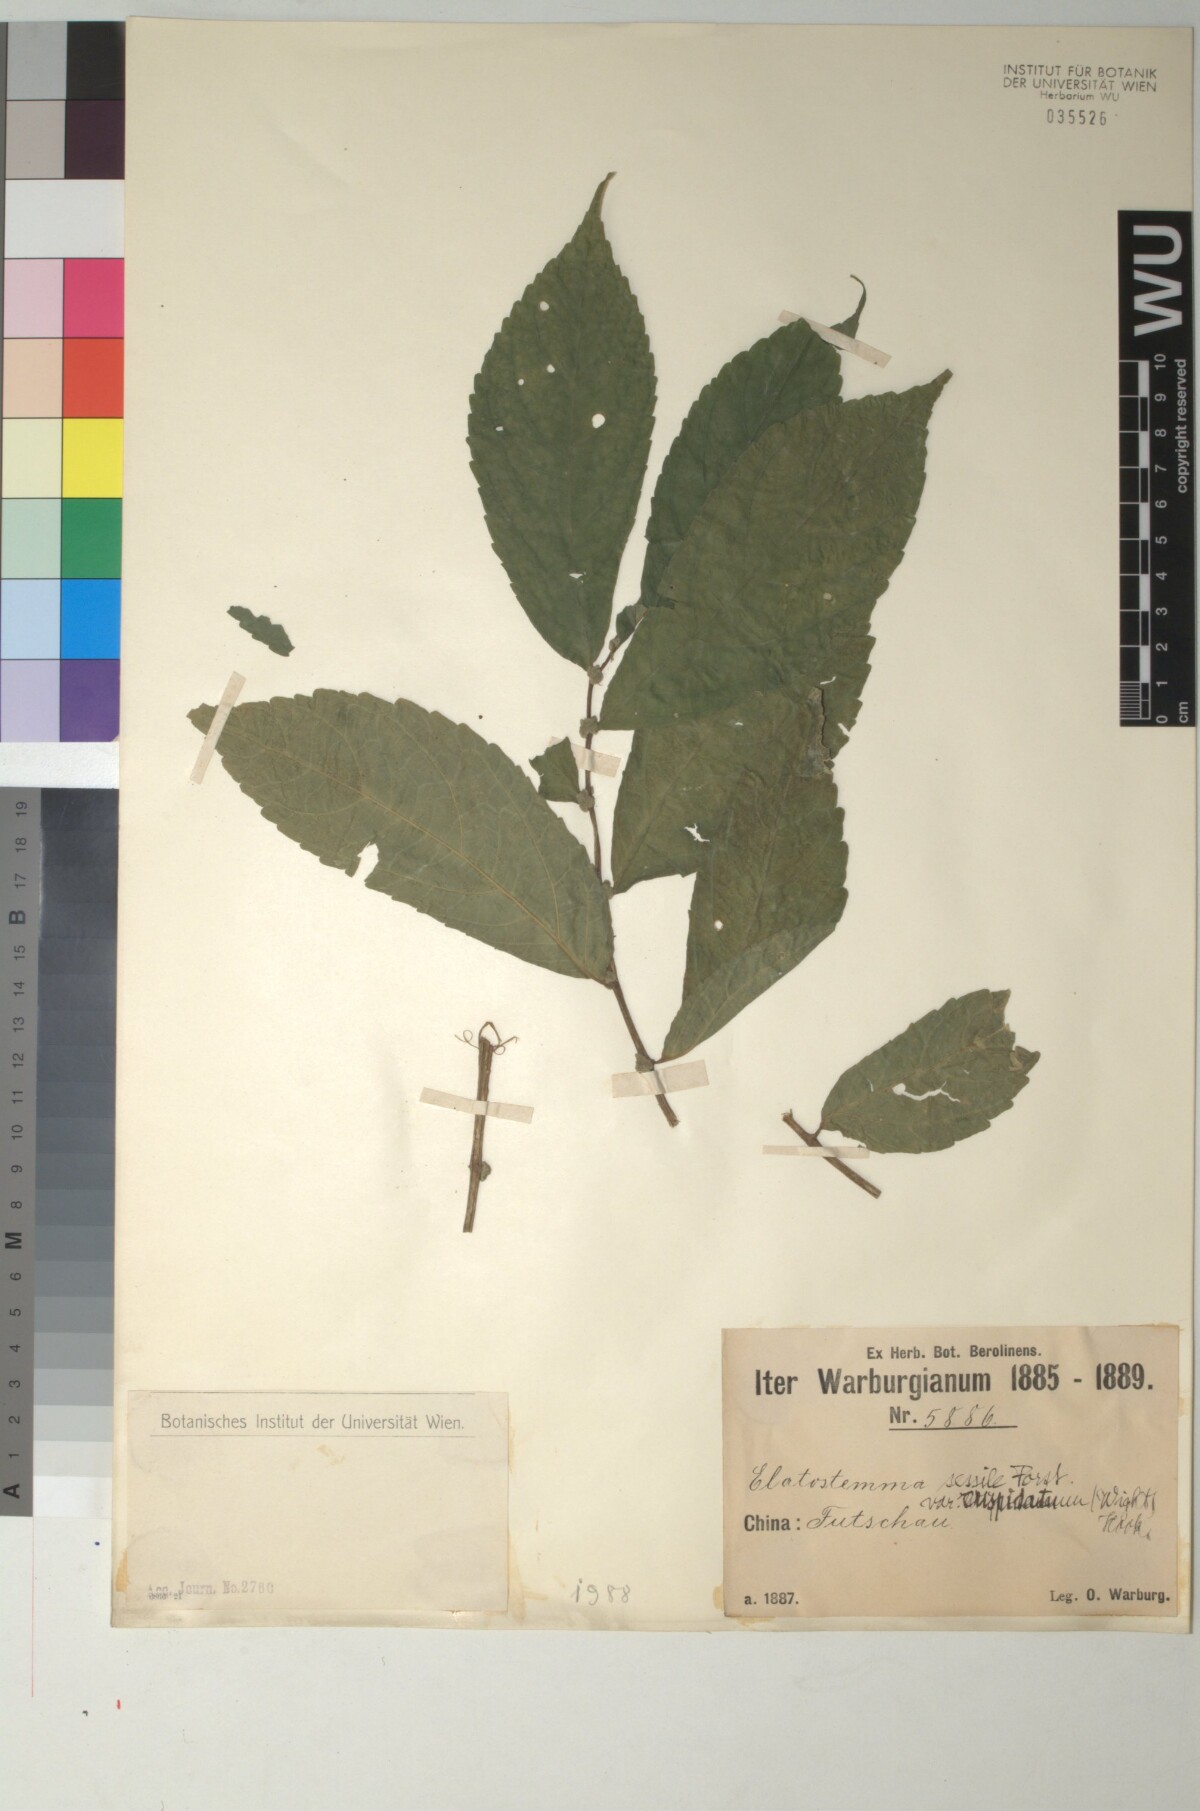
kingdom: Plantae
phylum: Tracheophyta
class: Magnoliopsida
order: Rosales
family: Urticaceae
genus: Elatostema
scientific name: Elatostema oblongifolium
